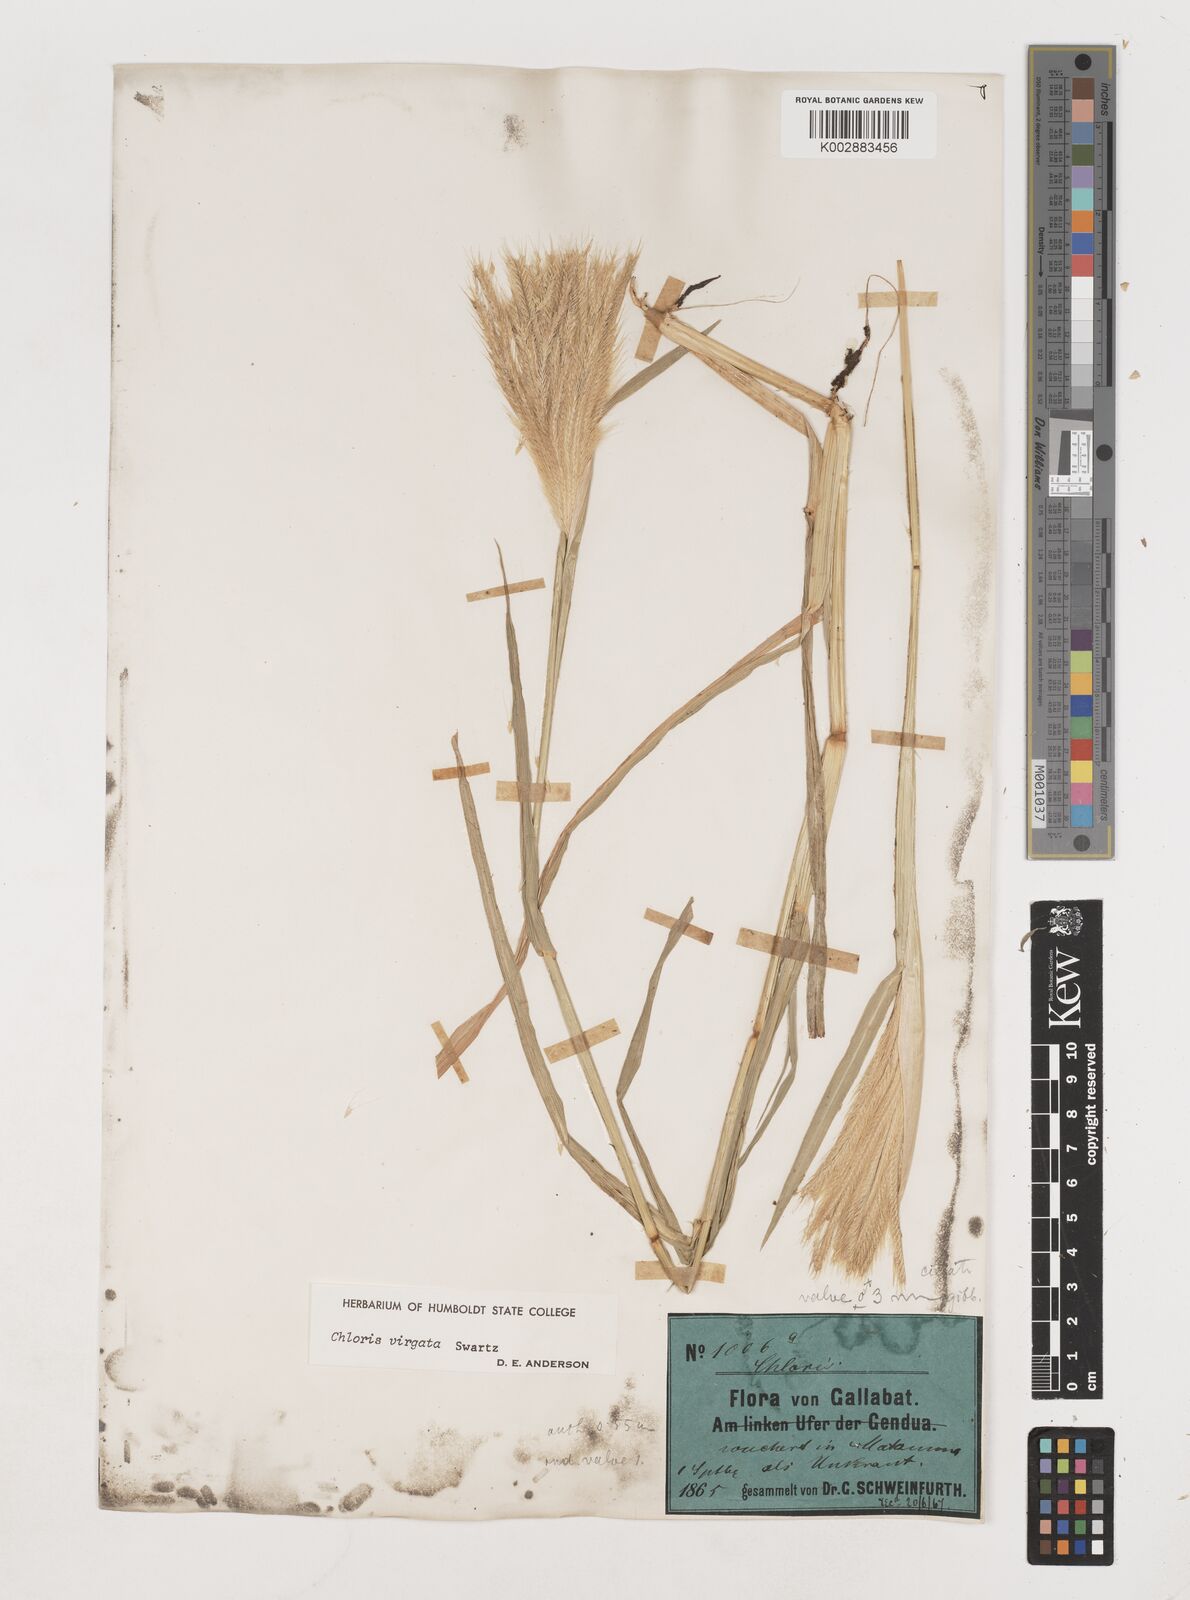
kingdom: Plantae
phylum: Tracheophyta
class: Liliopsida
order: Poales
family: Poaceae
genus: Chloris
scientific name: Chloris virgata
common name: Feathery rhodes-grass
